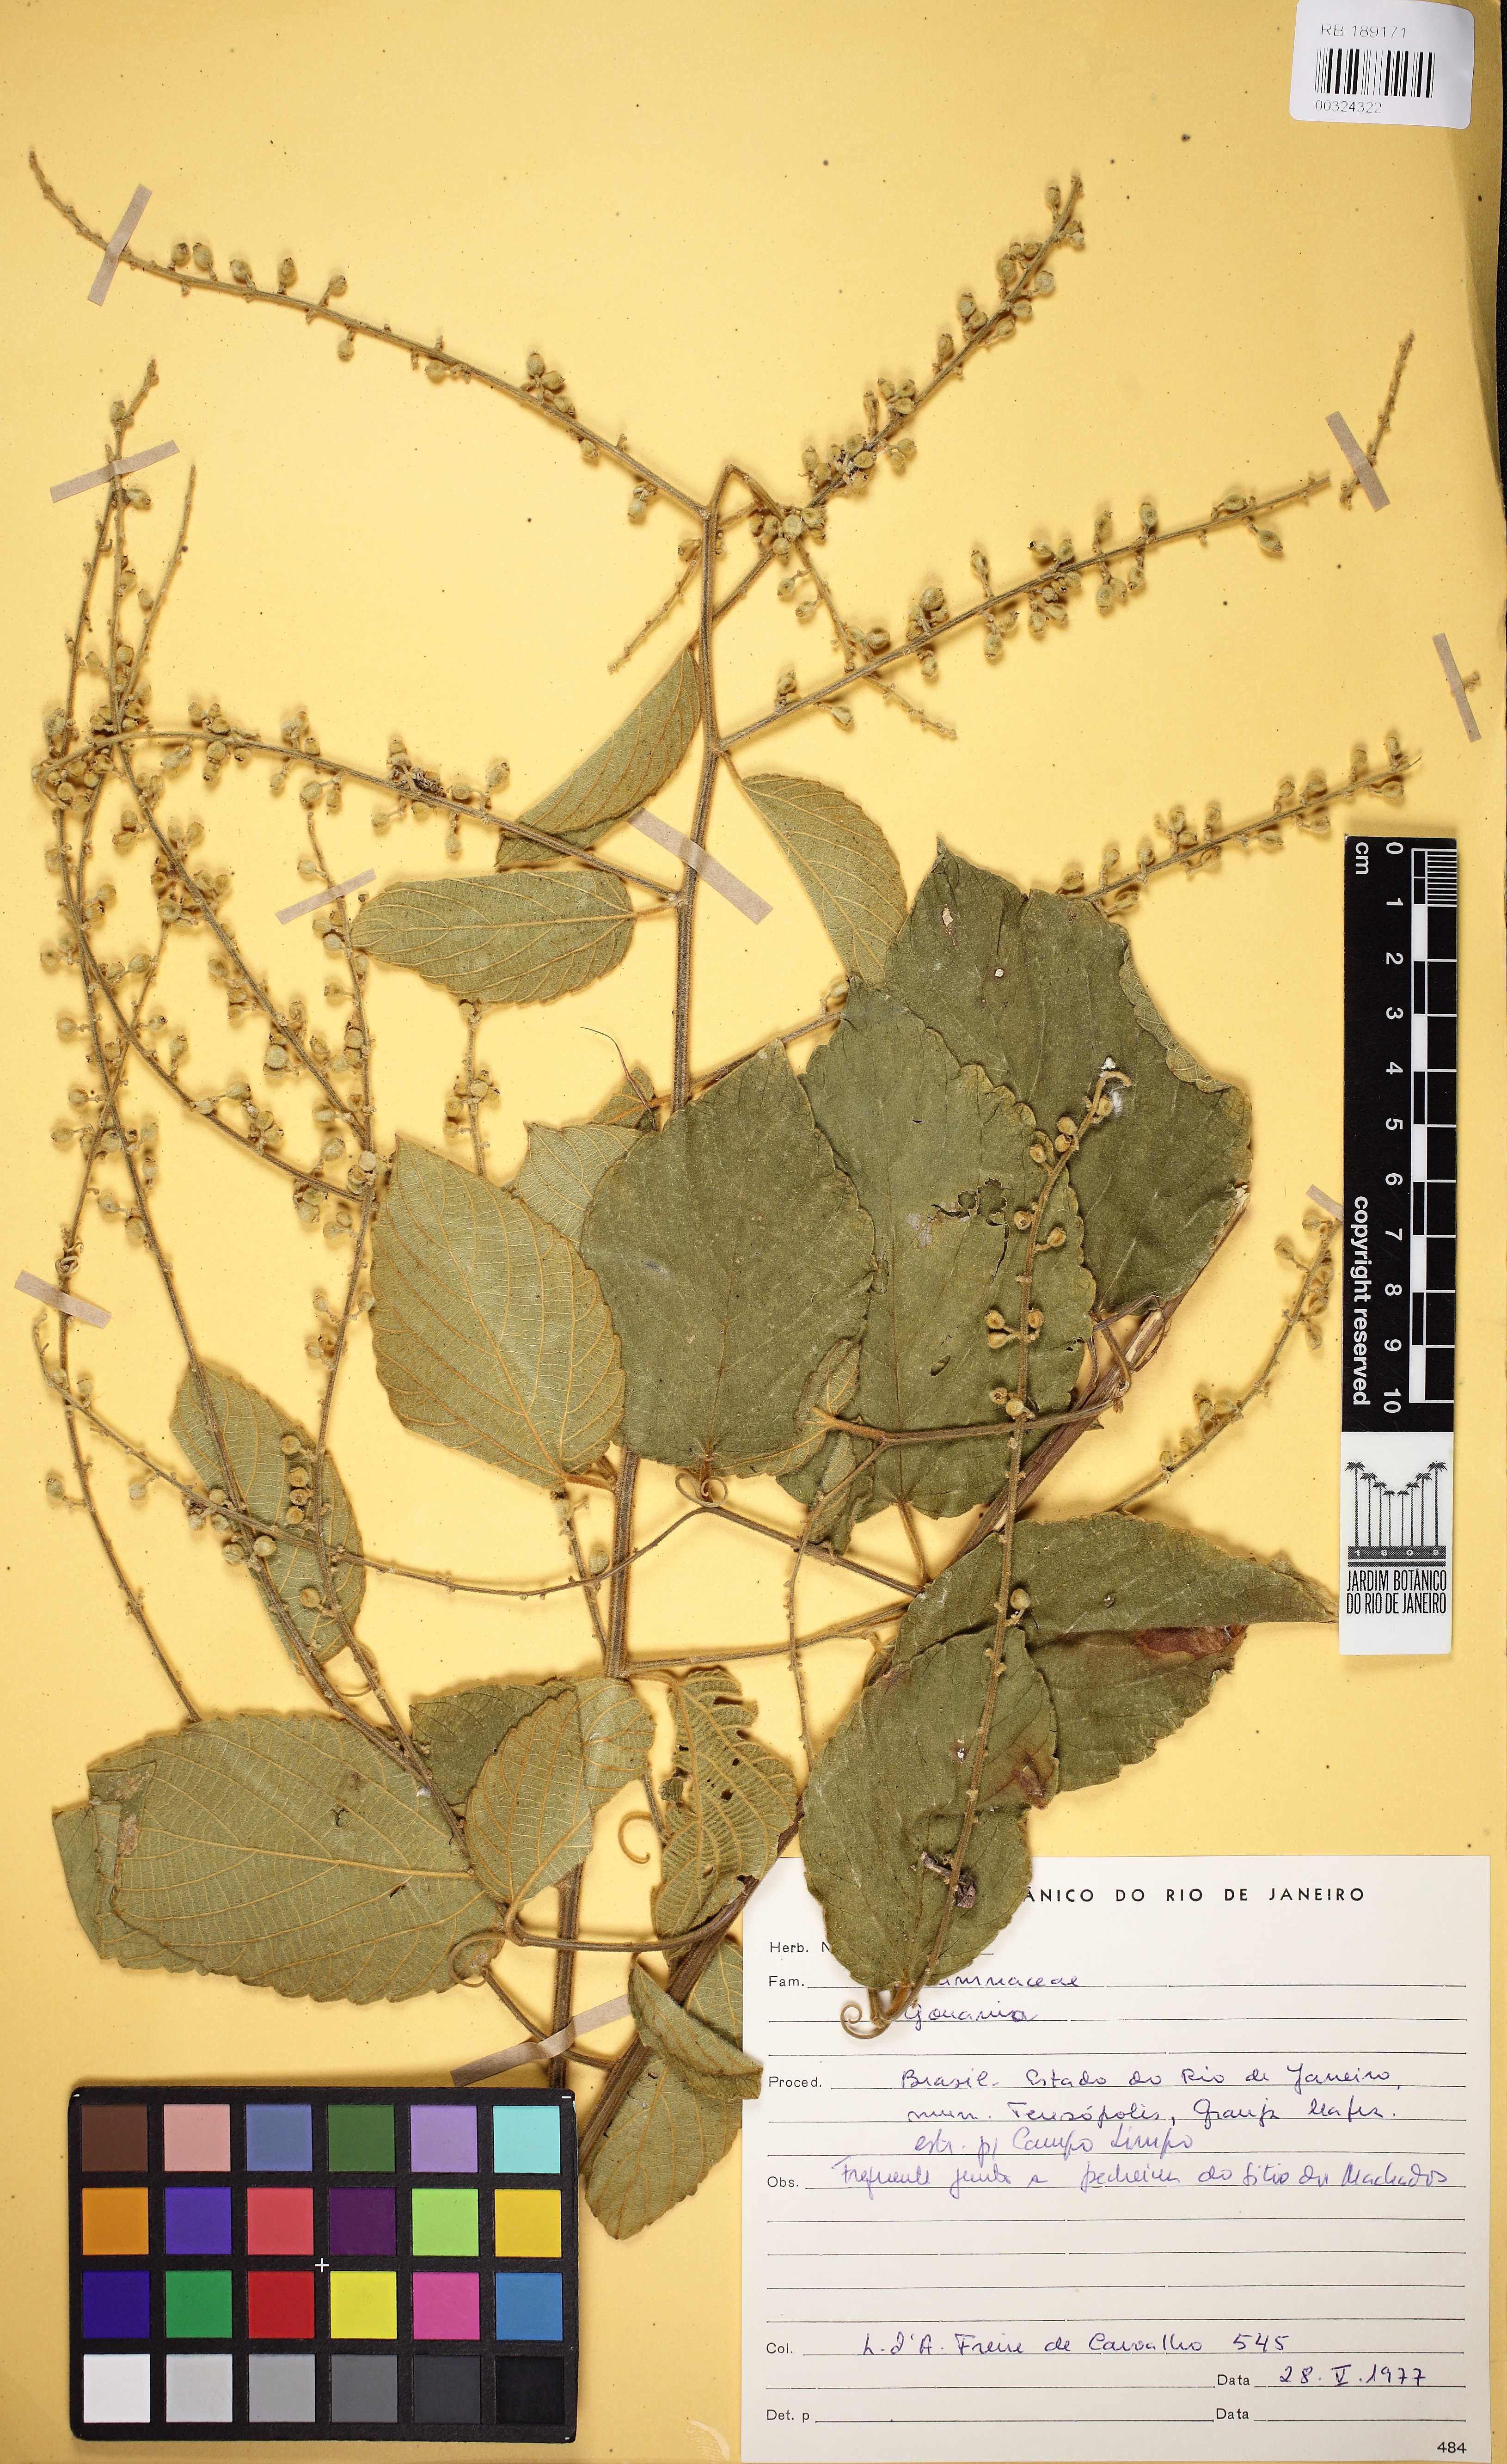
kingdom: Plantae
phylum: Tracheophyta
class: Magnoliopsida
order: Rosales
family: Rhamnaceae
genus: Gouania
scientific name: Gouania
